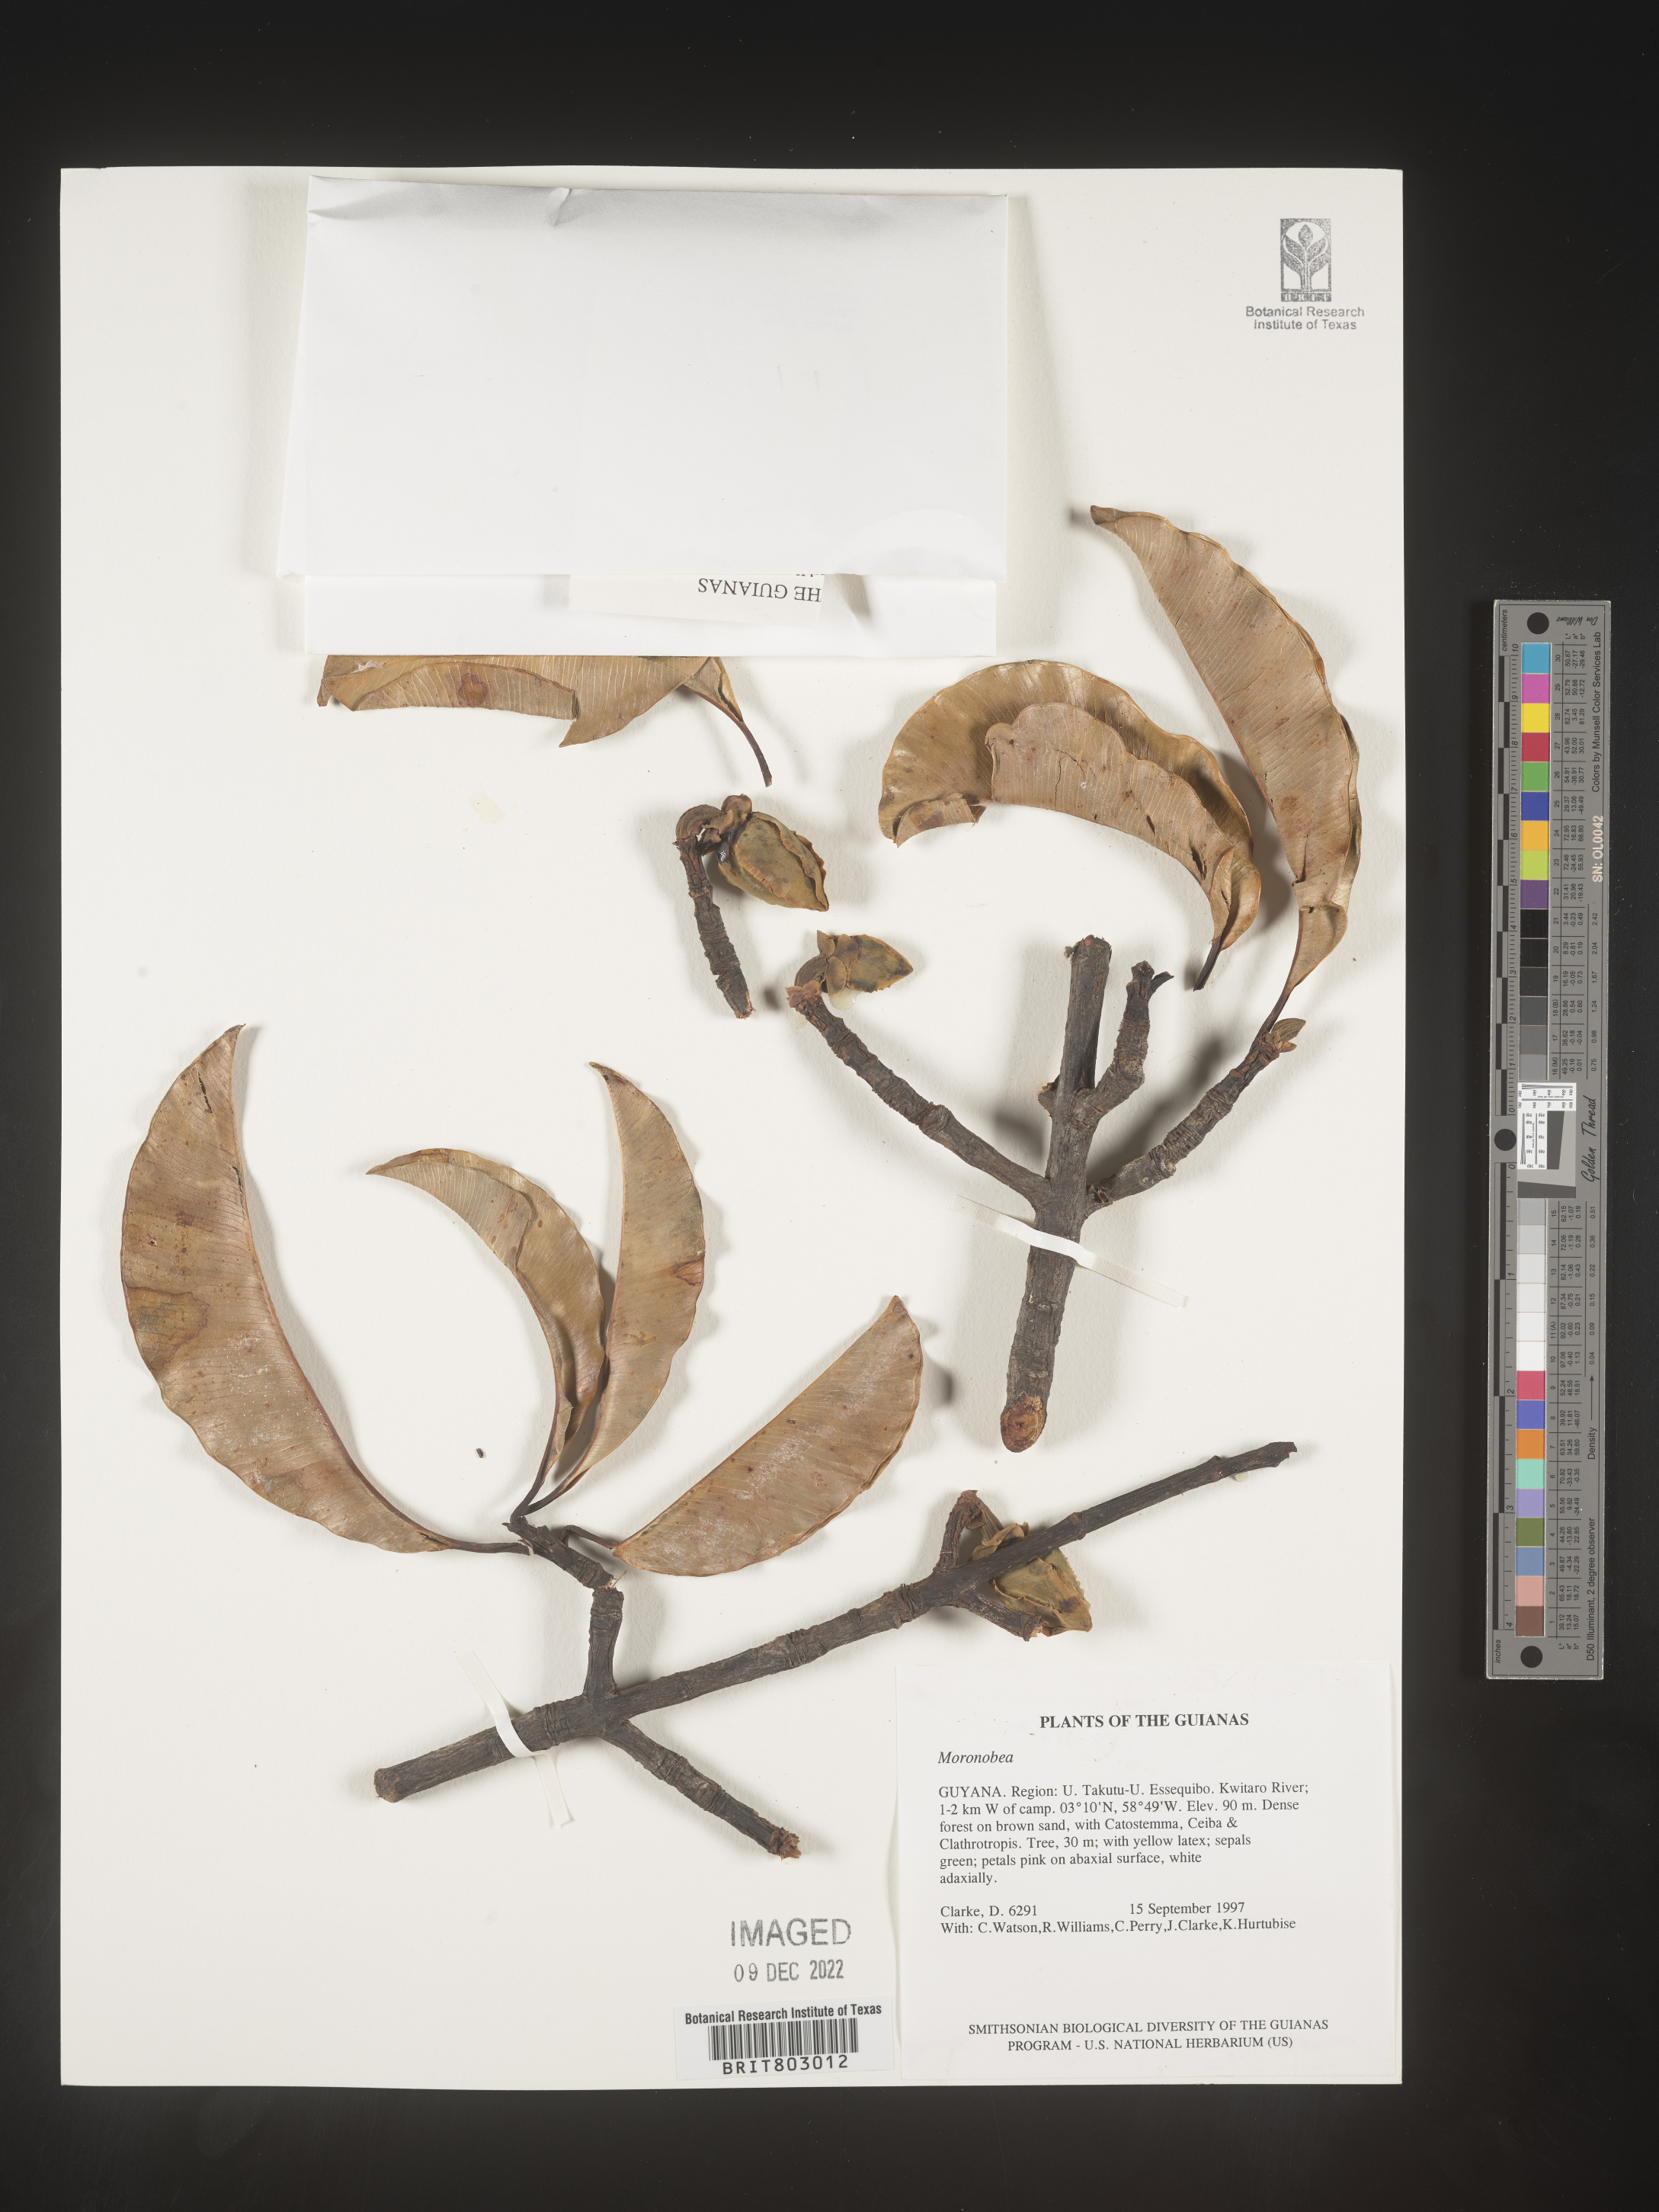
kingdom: Plantae
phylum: Tracheophyta
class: Magnoliopsida
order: Malpighiales
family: Clusiaceae
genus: Moronobea
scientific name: Moronobea
